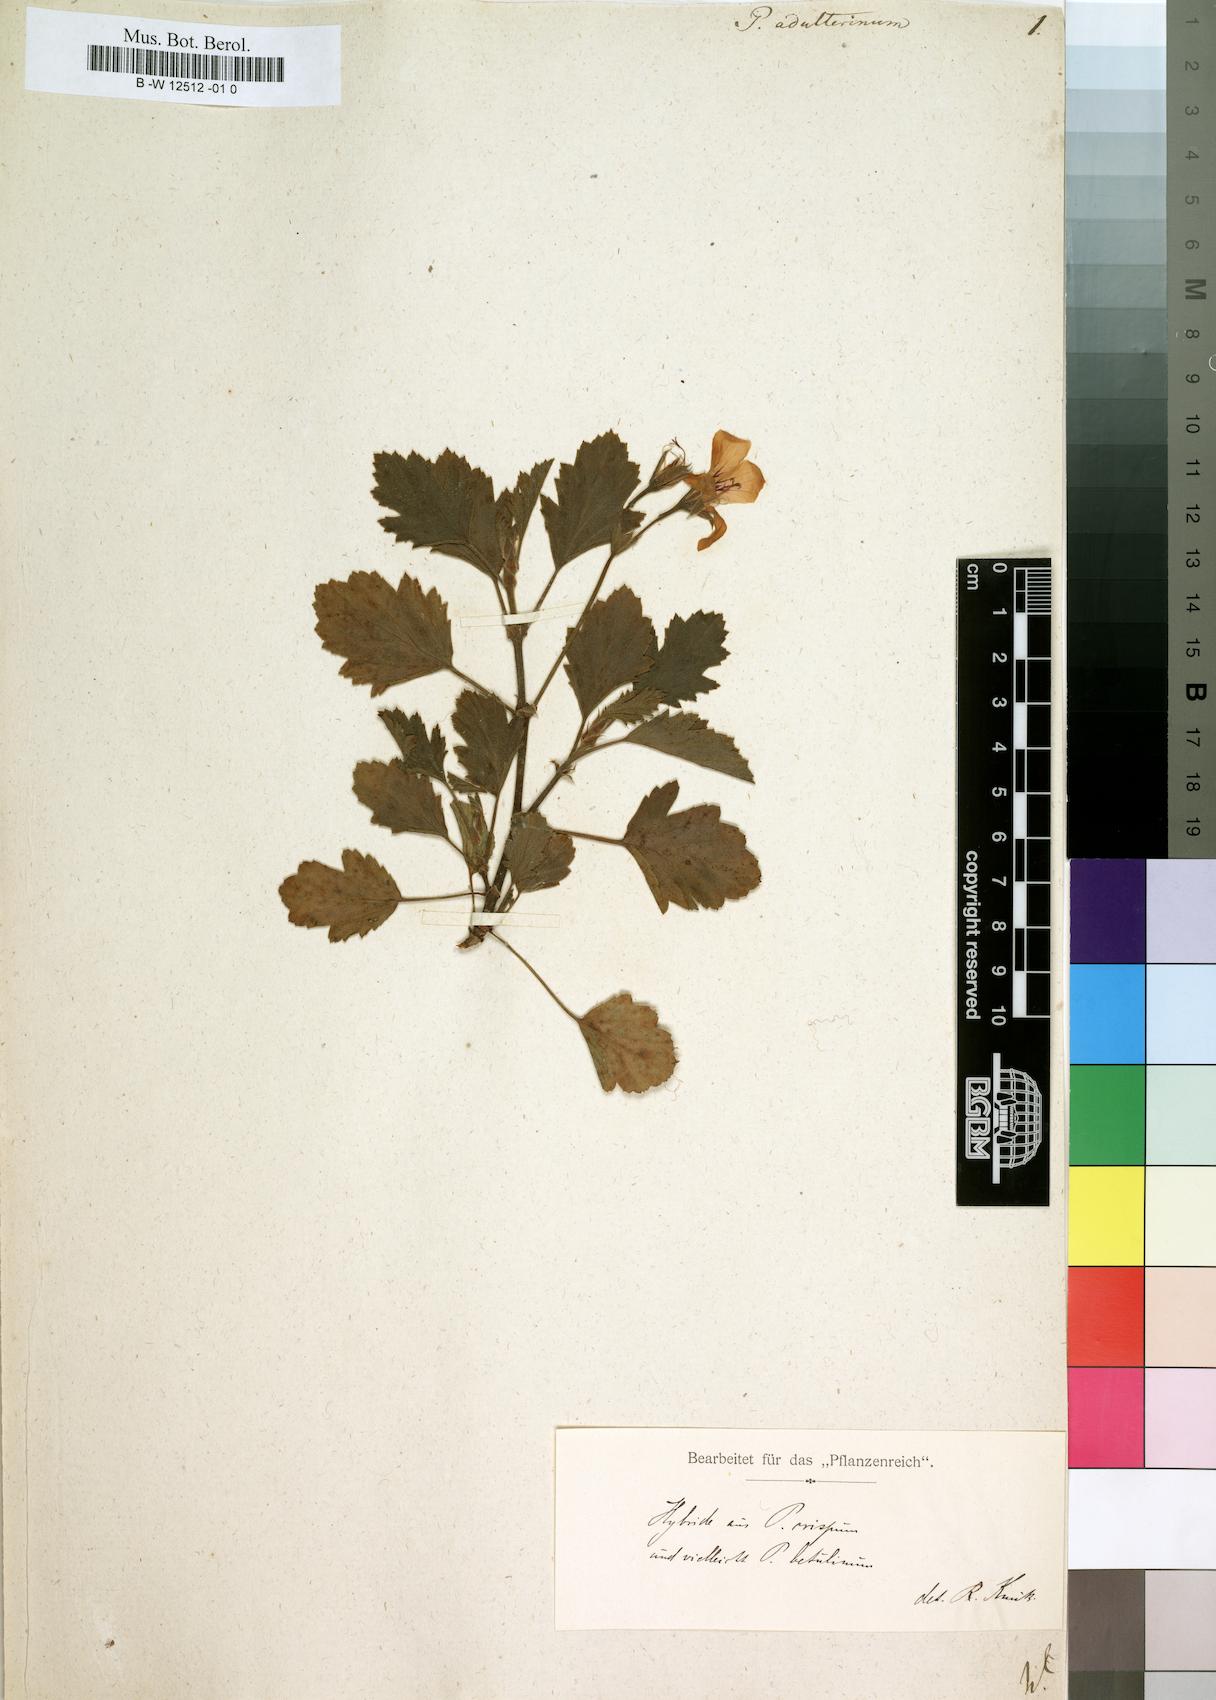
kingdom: Plantae
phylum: Tracheophyta
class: Magnoliopsida
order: Geraniales
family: Geraniaceae
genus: Pelargonium
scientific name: Pelargonium
